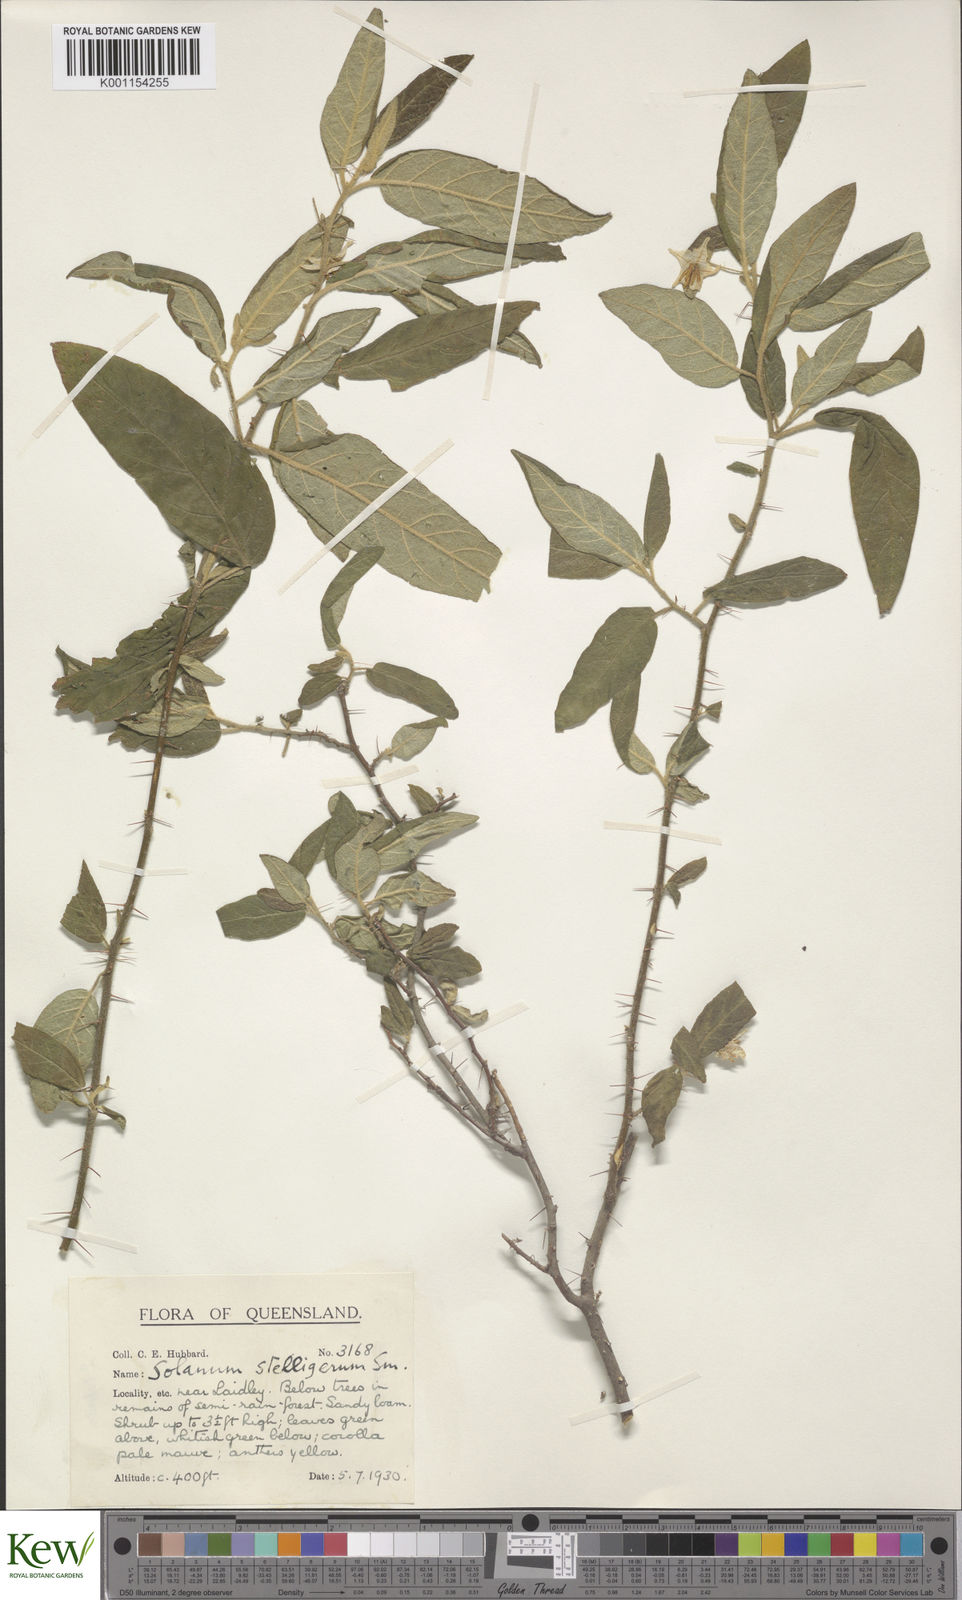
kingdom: Plantae
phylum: Tracheophyta
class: Magnoliopsida
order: Solanales
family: Solanaceae
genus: Solanum
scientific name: Solanum stelligerum
